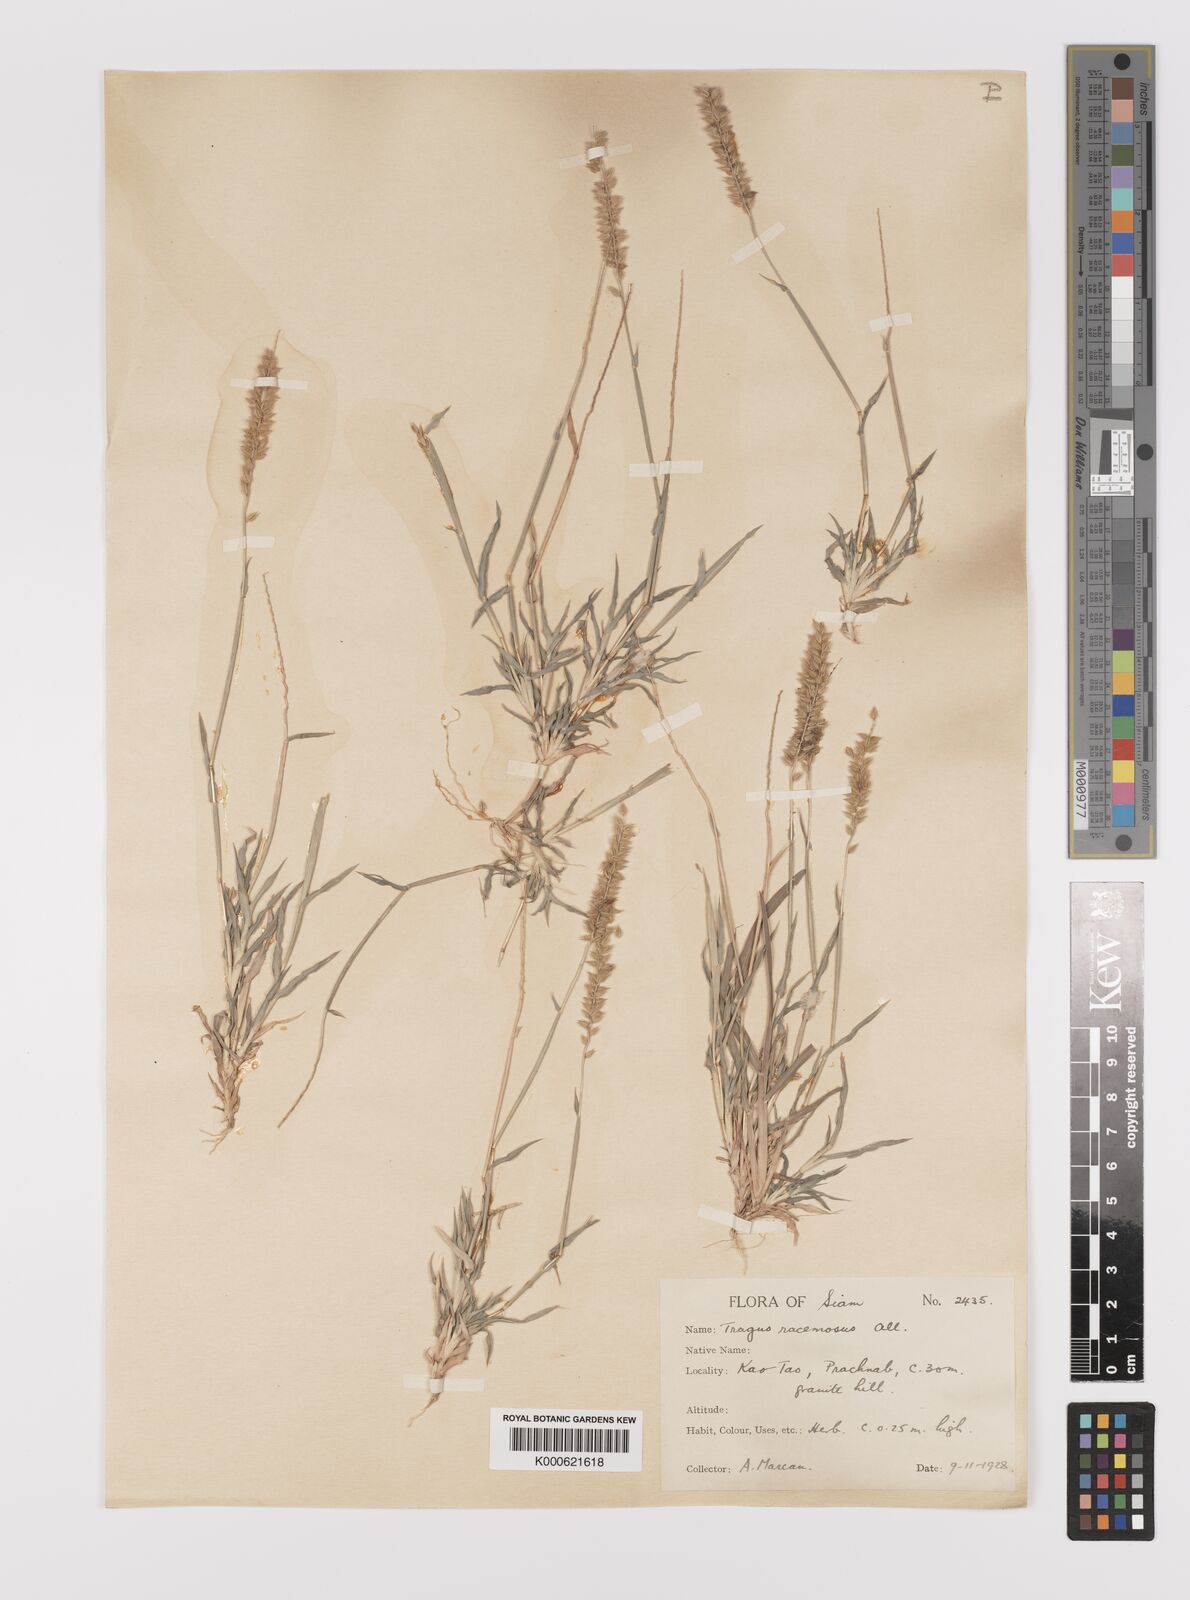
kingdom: Plantae
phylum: Tracheophyta
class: Liliopsida
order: Poales
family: Poaceae
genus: Tragus
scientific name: Tragus mongolorum
